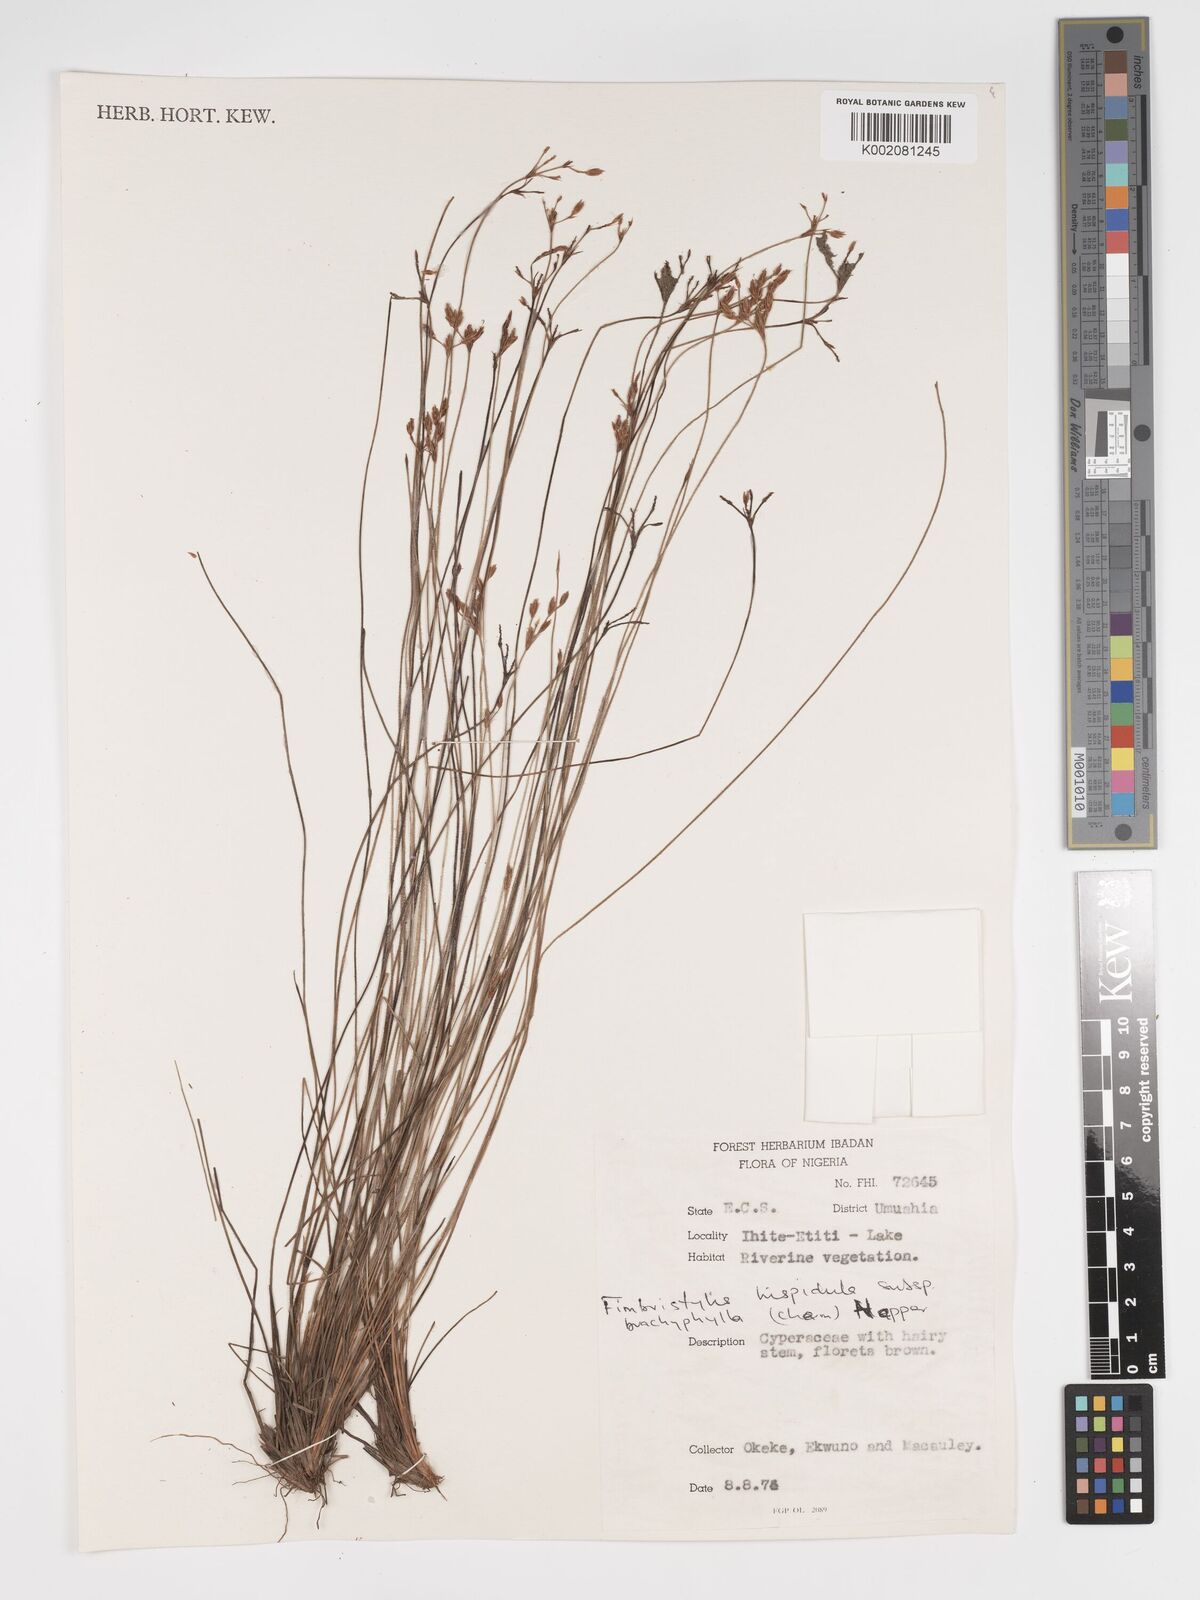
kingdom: Plantae
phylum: Tracheophyta
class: Liliopsida
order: Poales
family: Cyperaceae
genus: Bulbostylis
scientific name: Bulbostylis hispidula
